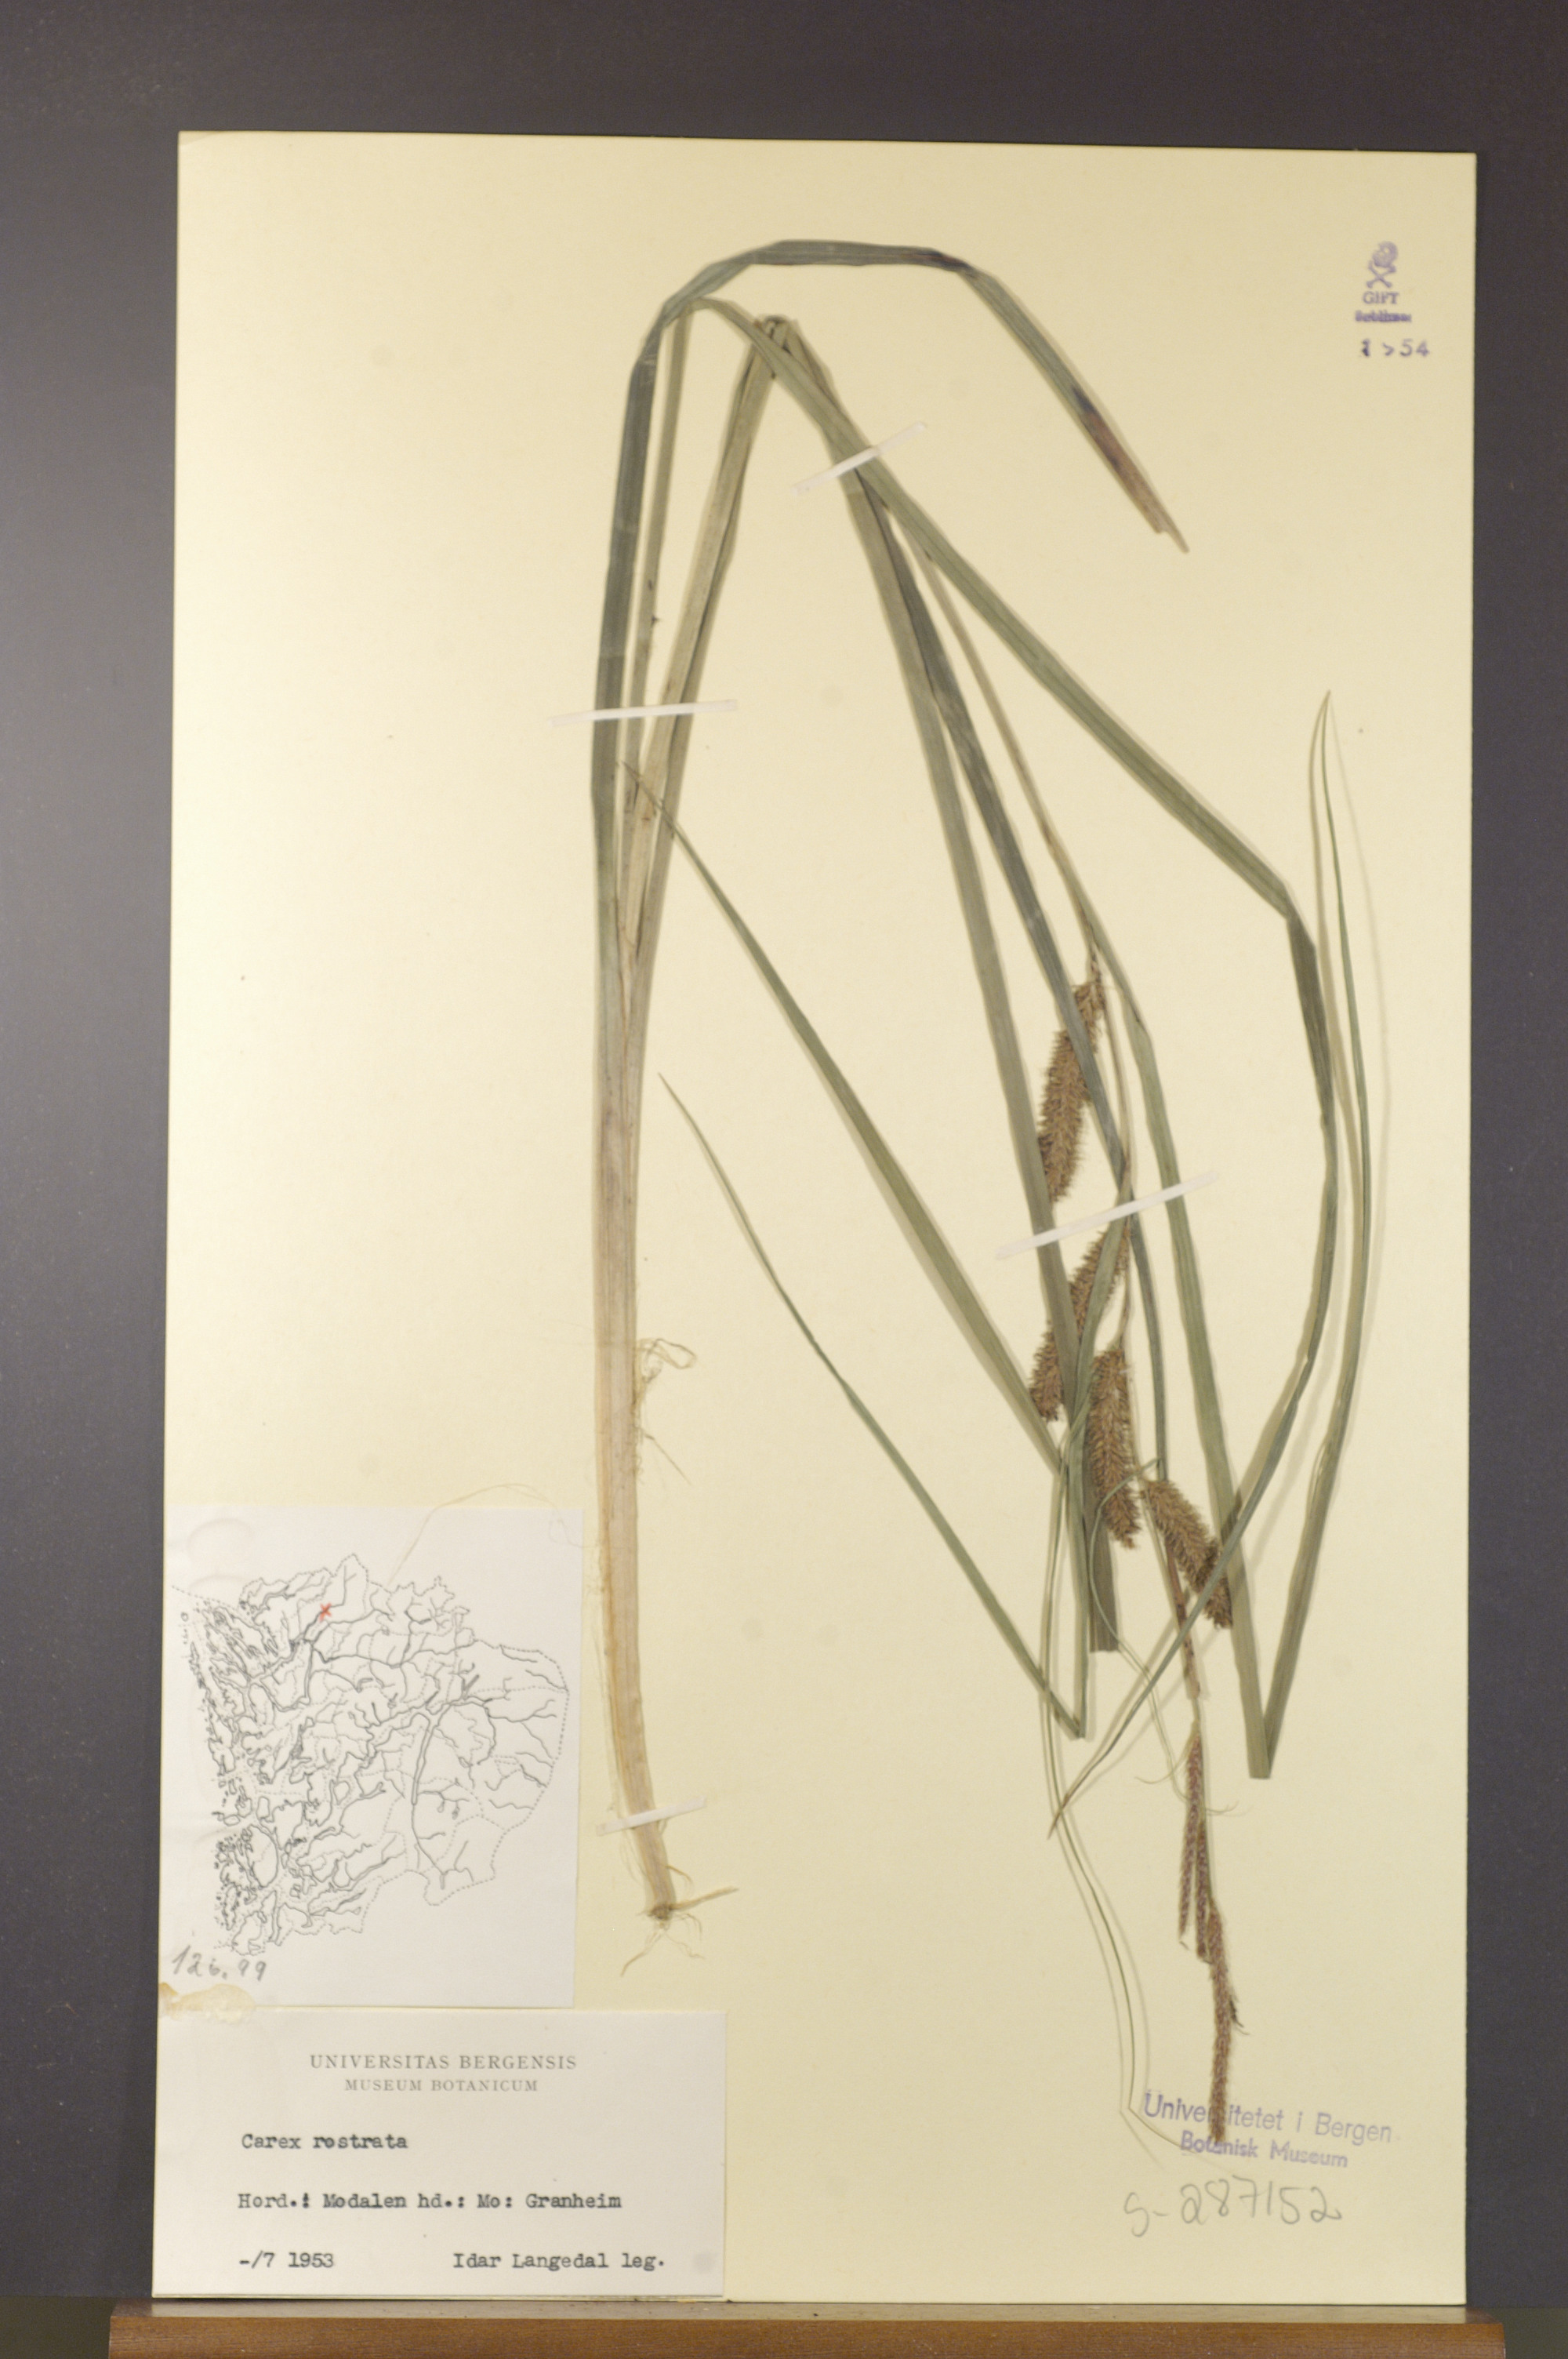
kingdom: Plantae
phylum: Tracheophyta
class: Liliopsida
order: Poales
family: Cyperaceae
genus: Carex
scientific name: Carex rostrata
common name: Bottle sedge
